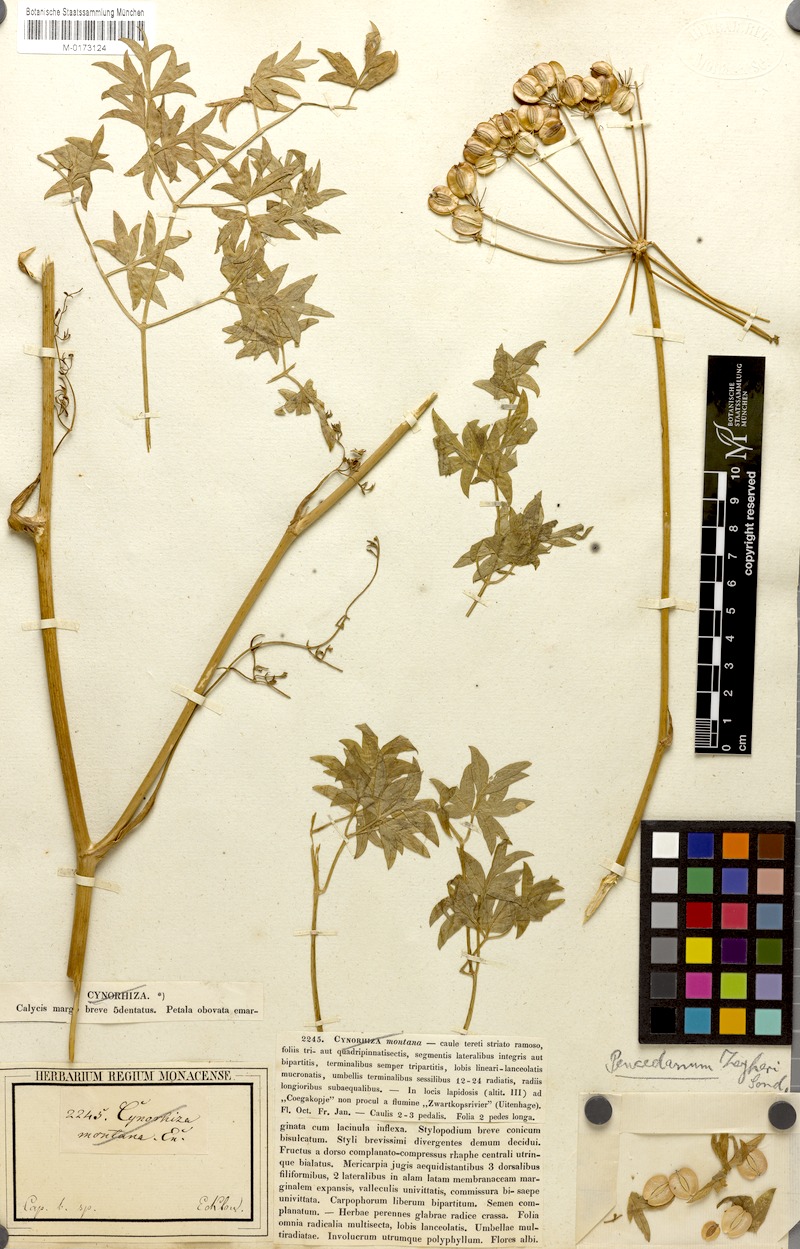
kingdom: Plantae
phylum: Tracheophyta
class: Magnoliopsida
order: Apiales
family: Apiaceae
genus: Nanobubon
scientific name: Nanobubon capillaceum
